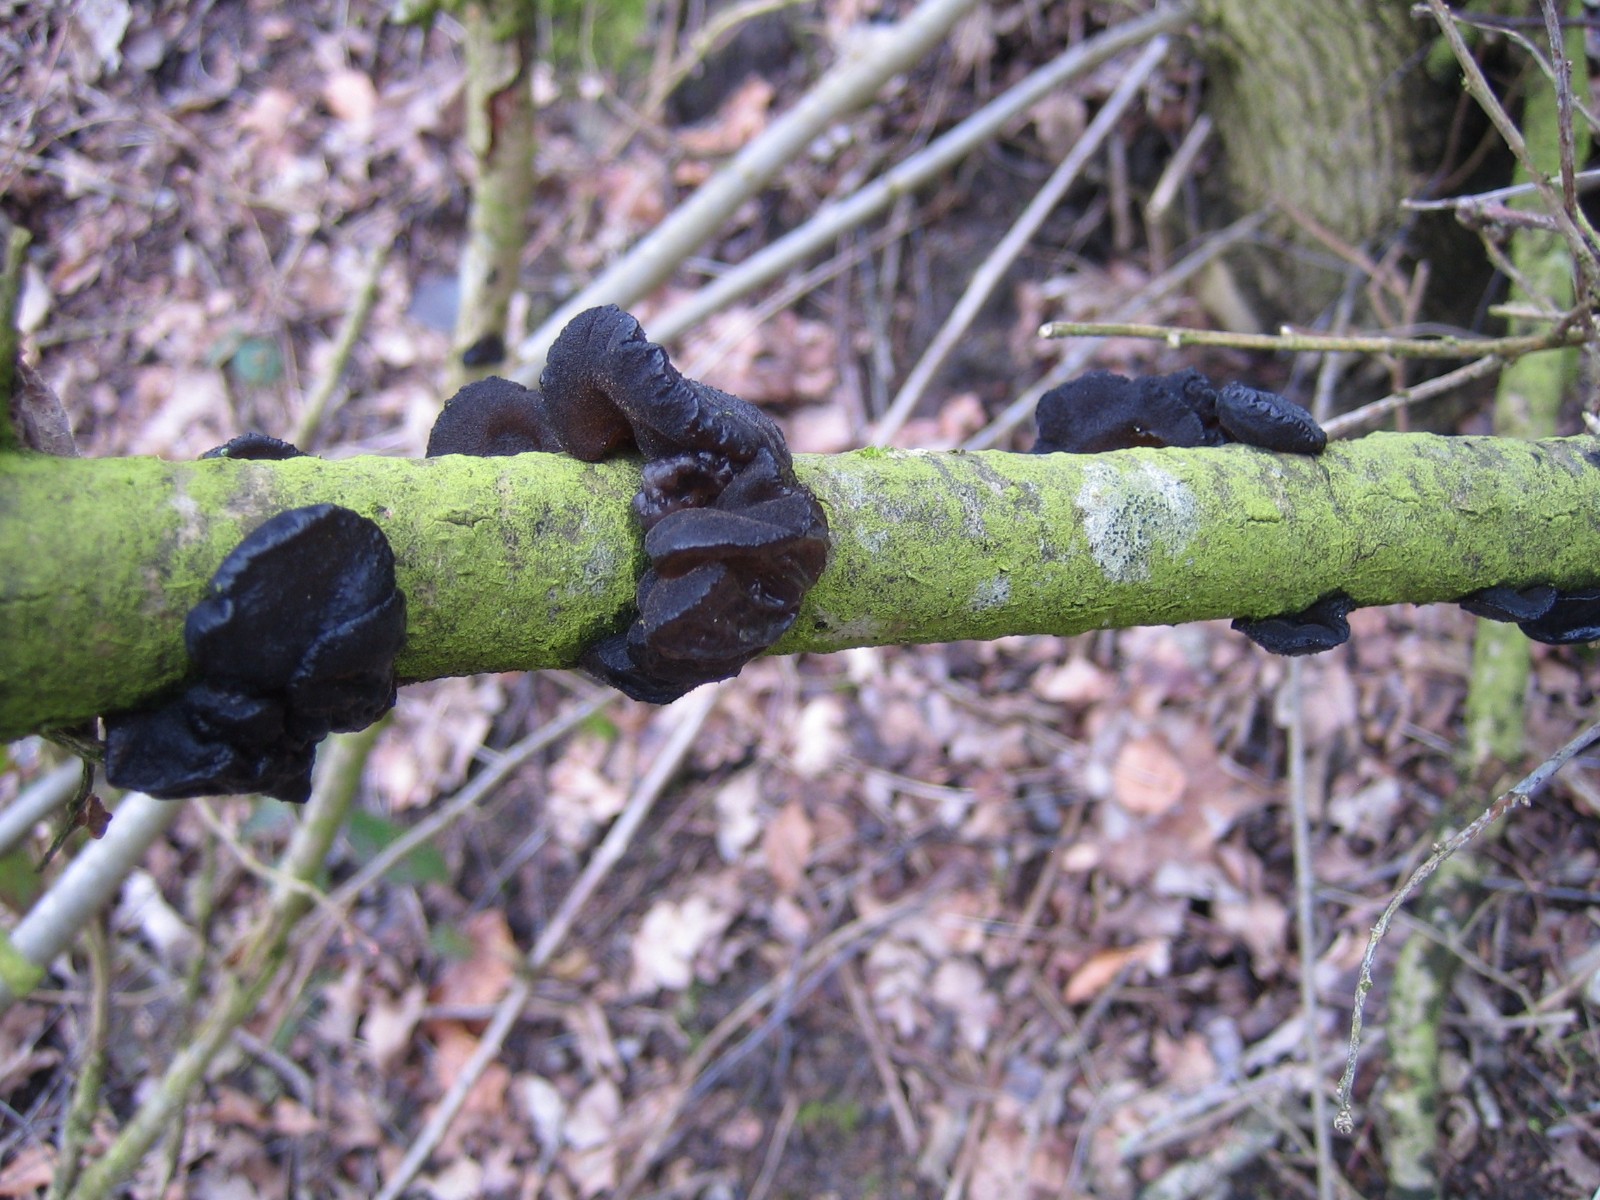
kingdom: Fungi
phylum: Basidiomycota
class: Agaricomycetes
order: Auriculariales
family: Auriculariaceae
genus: Exidia
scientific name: Exidia glandulosa
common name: ege-bævretop
